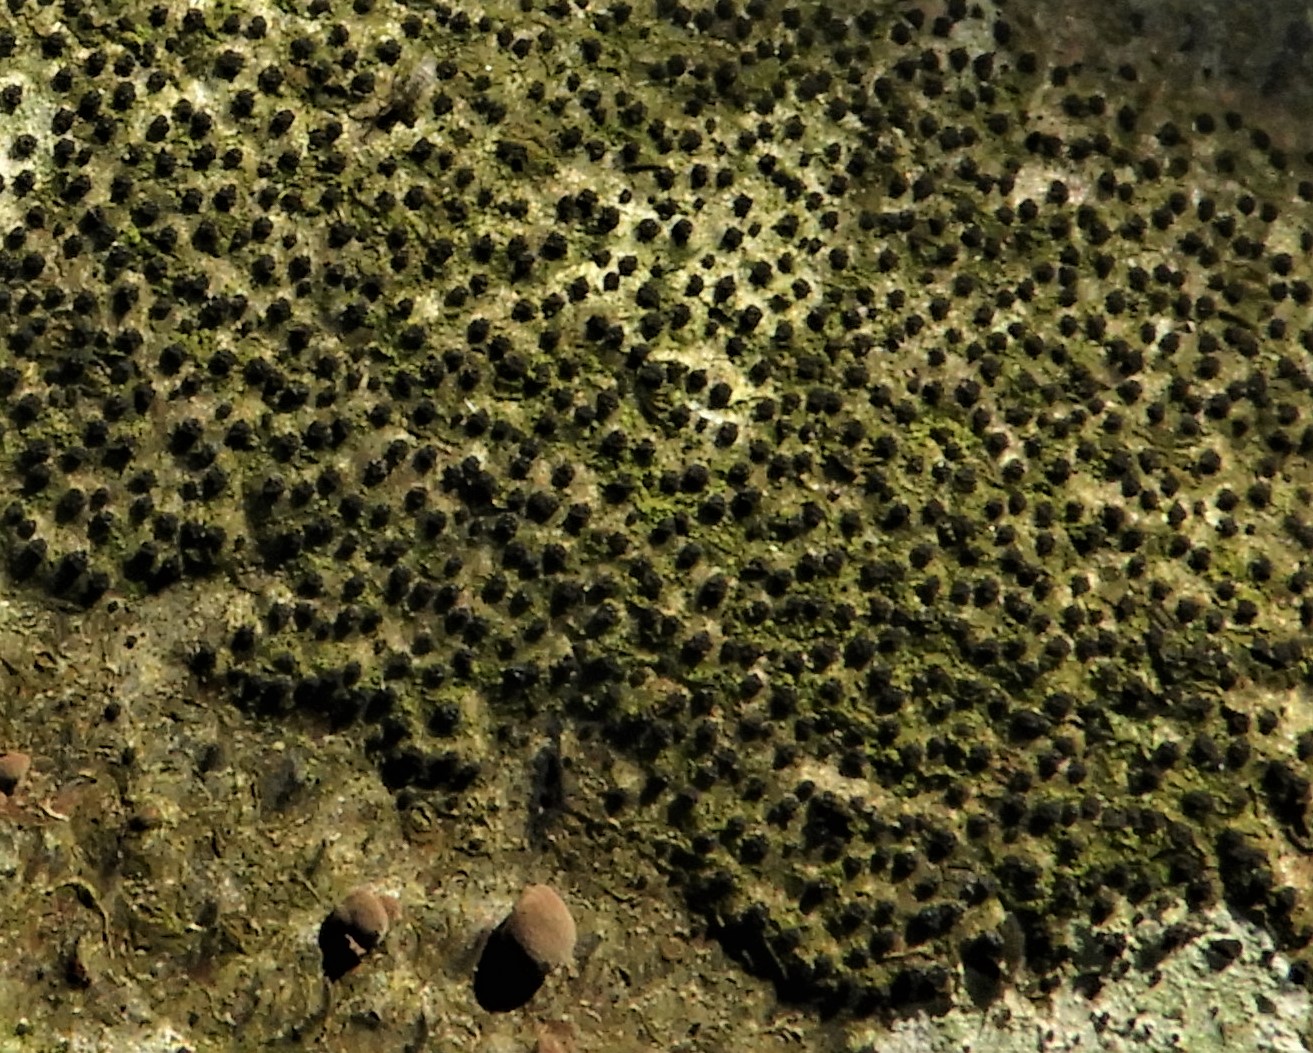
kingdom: Fungi
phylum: Ascomycota
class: Sordariomycetes
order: Xylariales
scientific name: Xylariales
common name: stødsvampordenen
